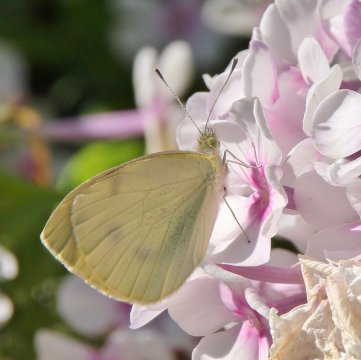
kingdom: Animalia
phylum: Arthropoda
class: Insecta
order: Lepidoptera
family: Pieridae
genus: Pieris
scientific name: Pieris rapae
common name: Cabbage White
